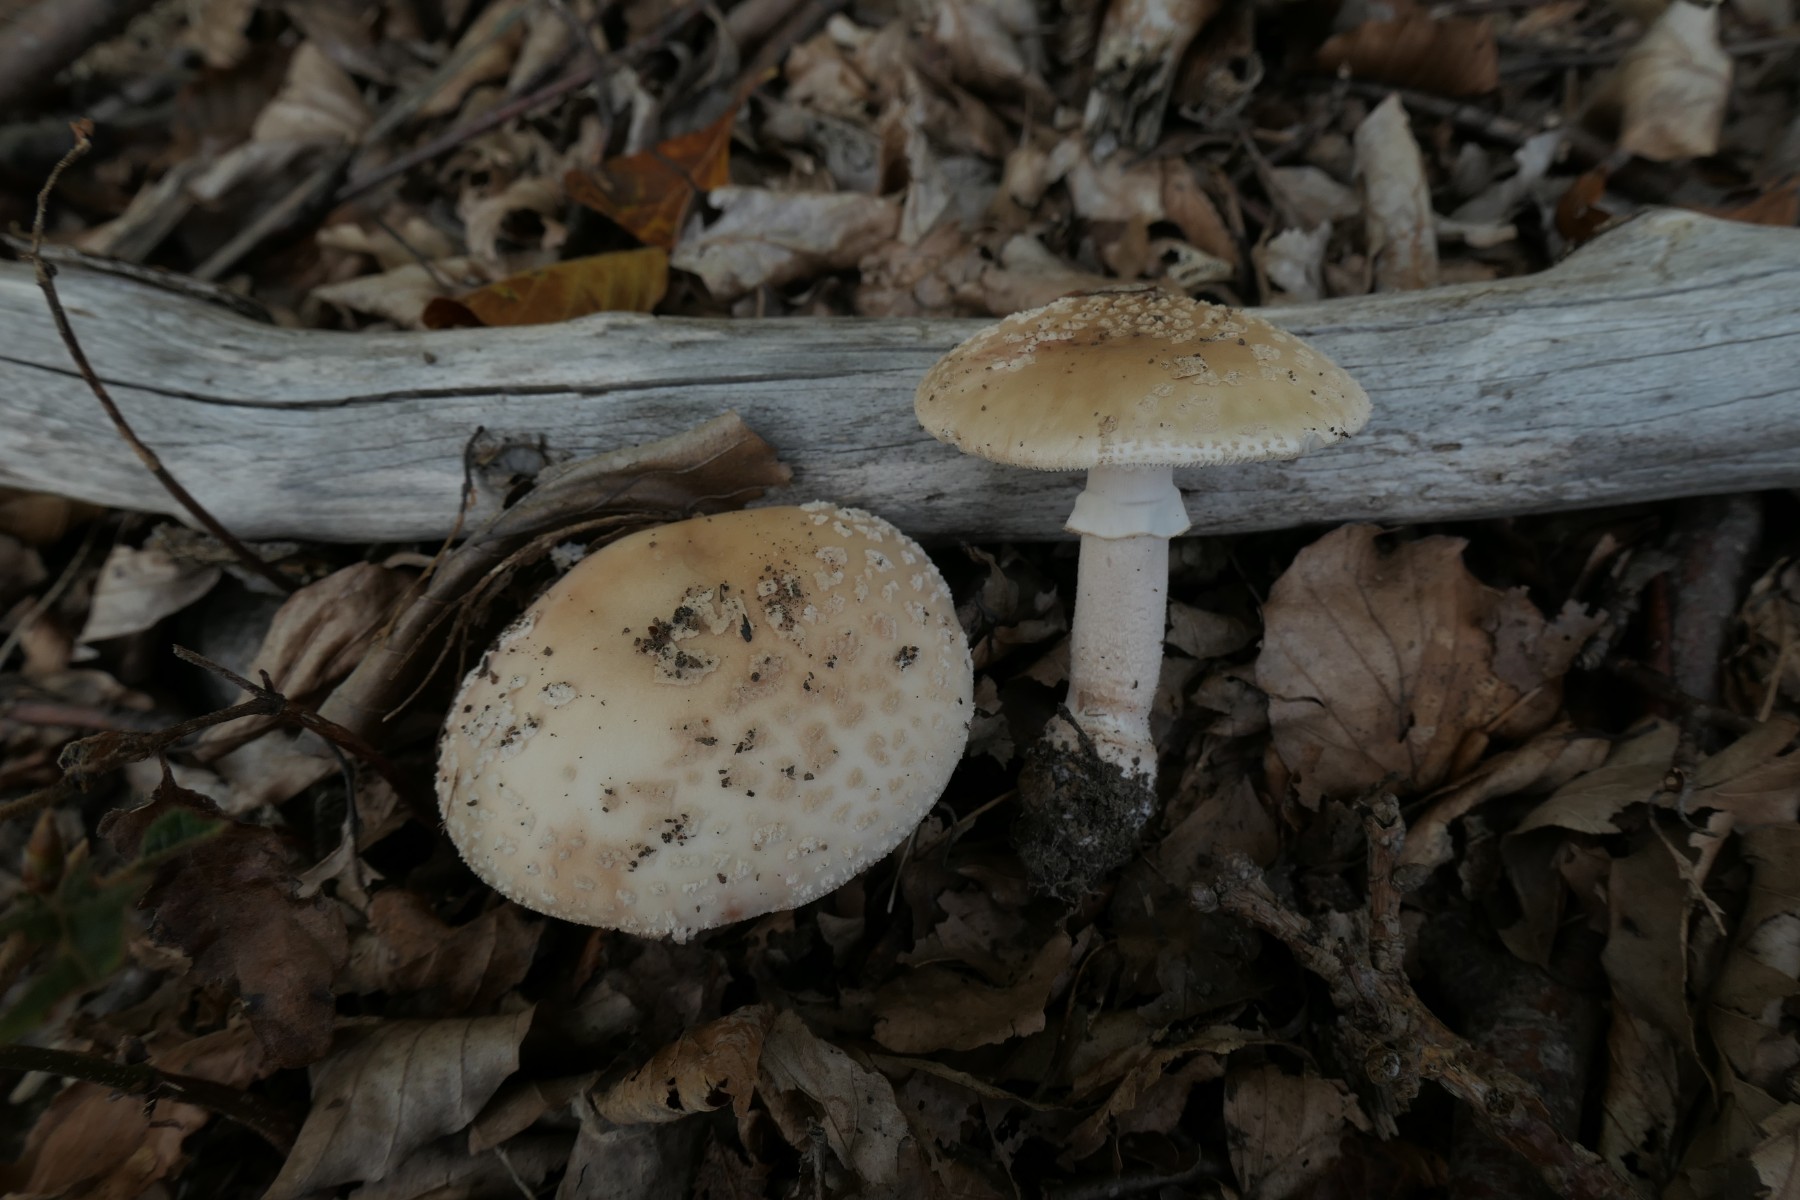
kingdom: Fungi
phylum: Basidiomycota
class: Agaricomycetes
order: Agaricales
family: Amanitaceae
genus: Amanita
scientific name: Amanita rubescens
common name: rødmende fluesvamp
